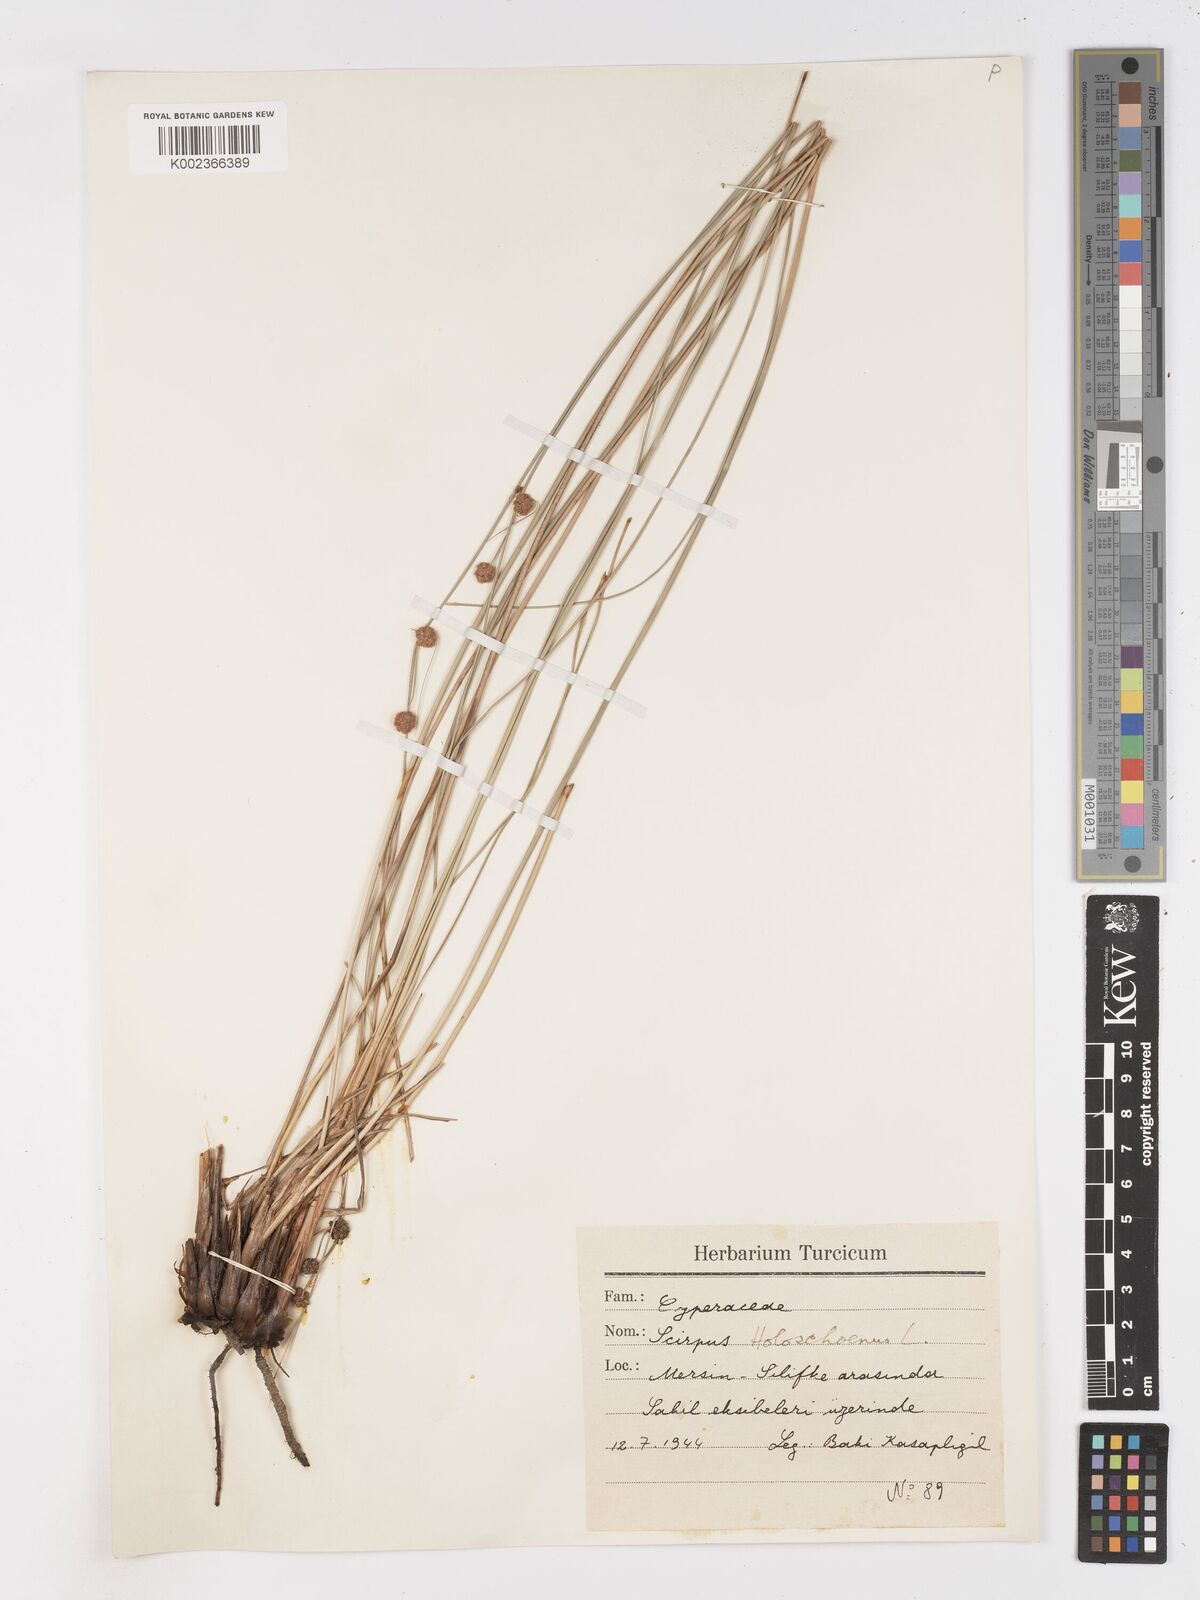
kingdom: Plantae
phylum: Tracheophyta
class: Liliopsida
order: Poales
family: Cyperaceae
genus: Scirpoides
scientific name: Scirpoides holoschoenus
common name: Round-headed club-rush
